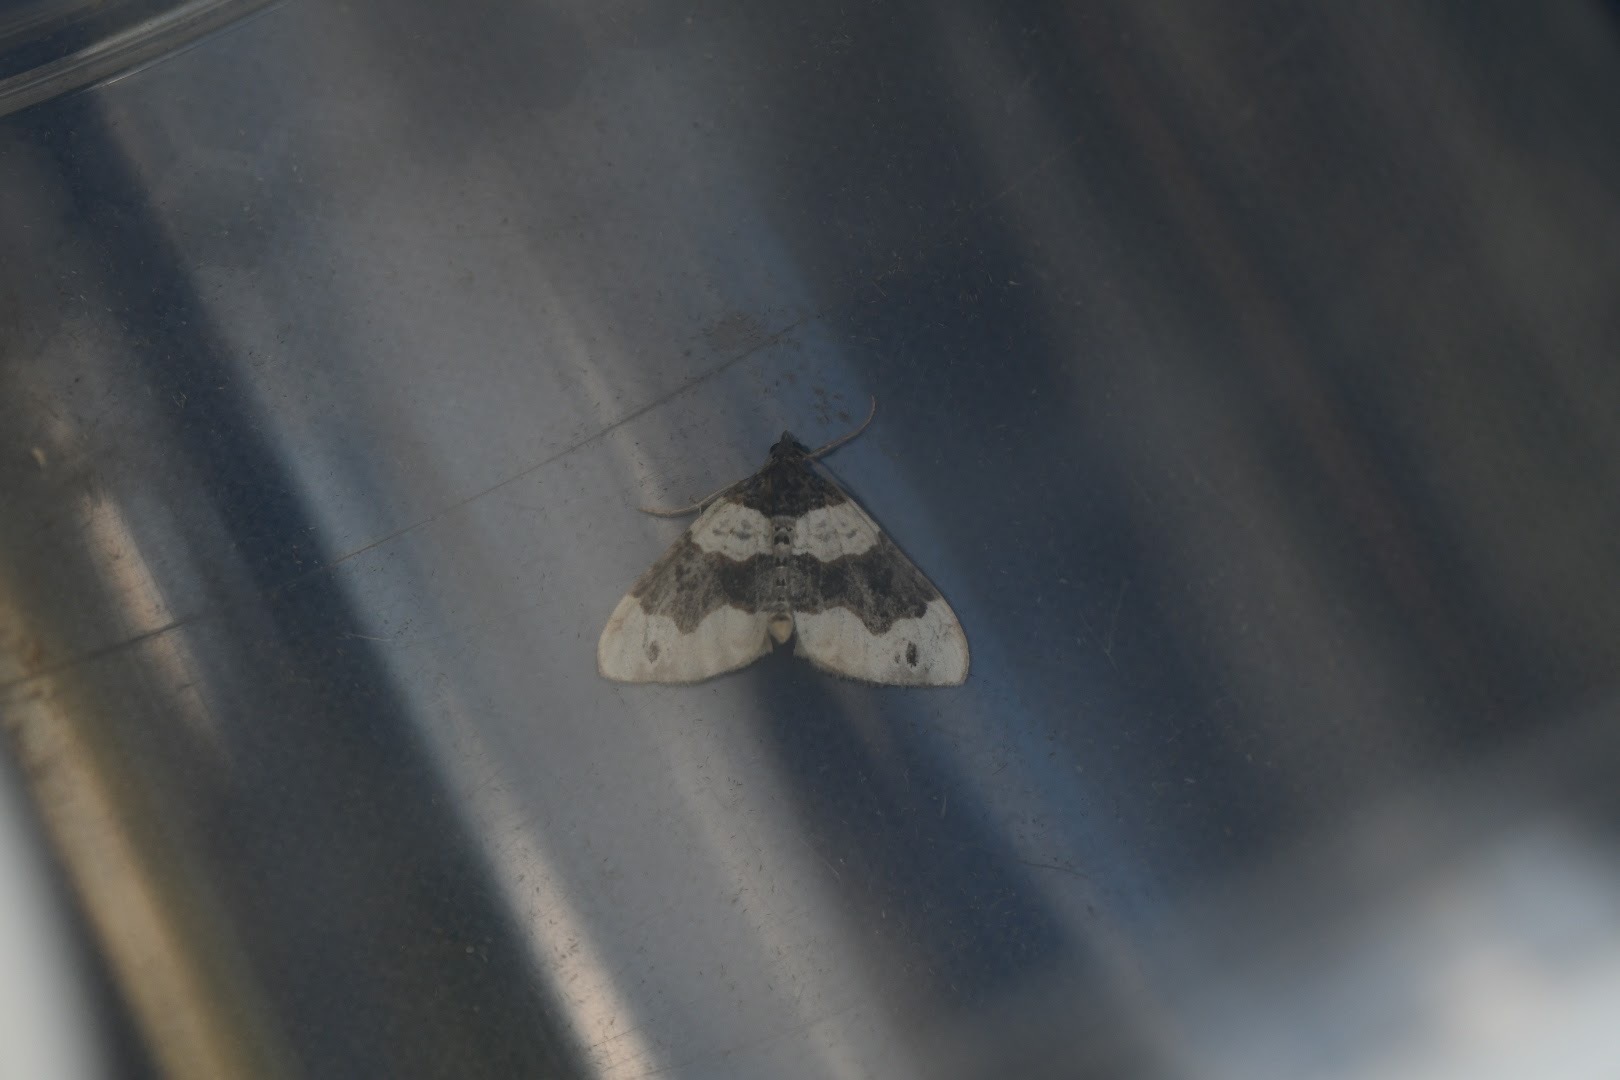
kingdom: Animalia
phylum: Arthropoda
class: Insecta
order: Lepidoptera
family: Geometridae
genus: Cosmorhoe
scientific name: Cosmorhoe ocellata
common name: Snerre-bladmåler
